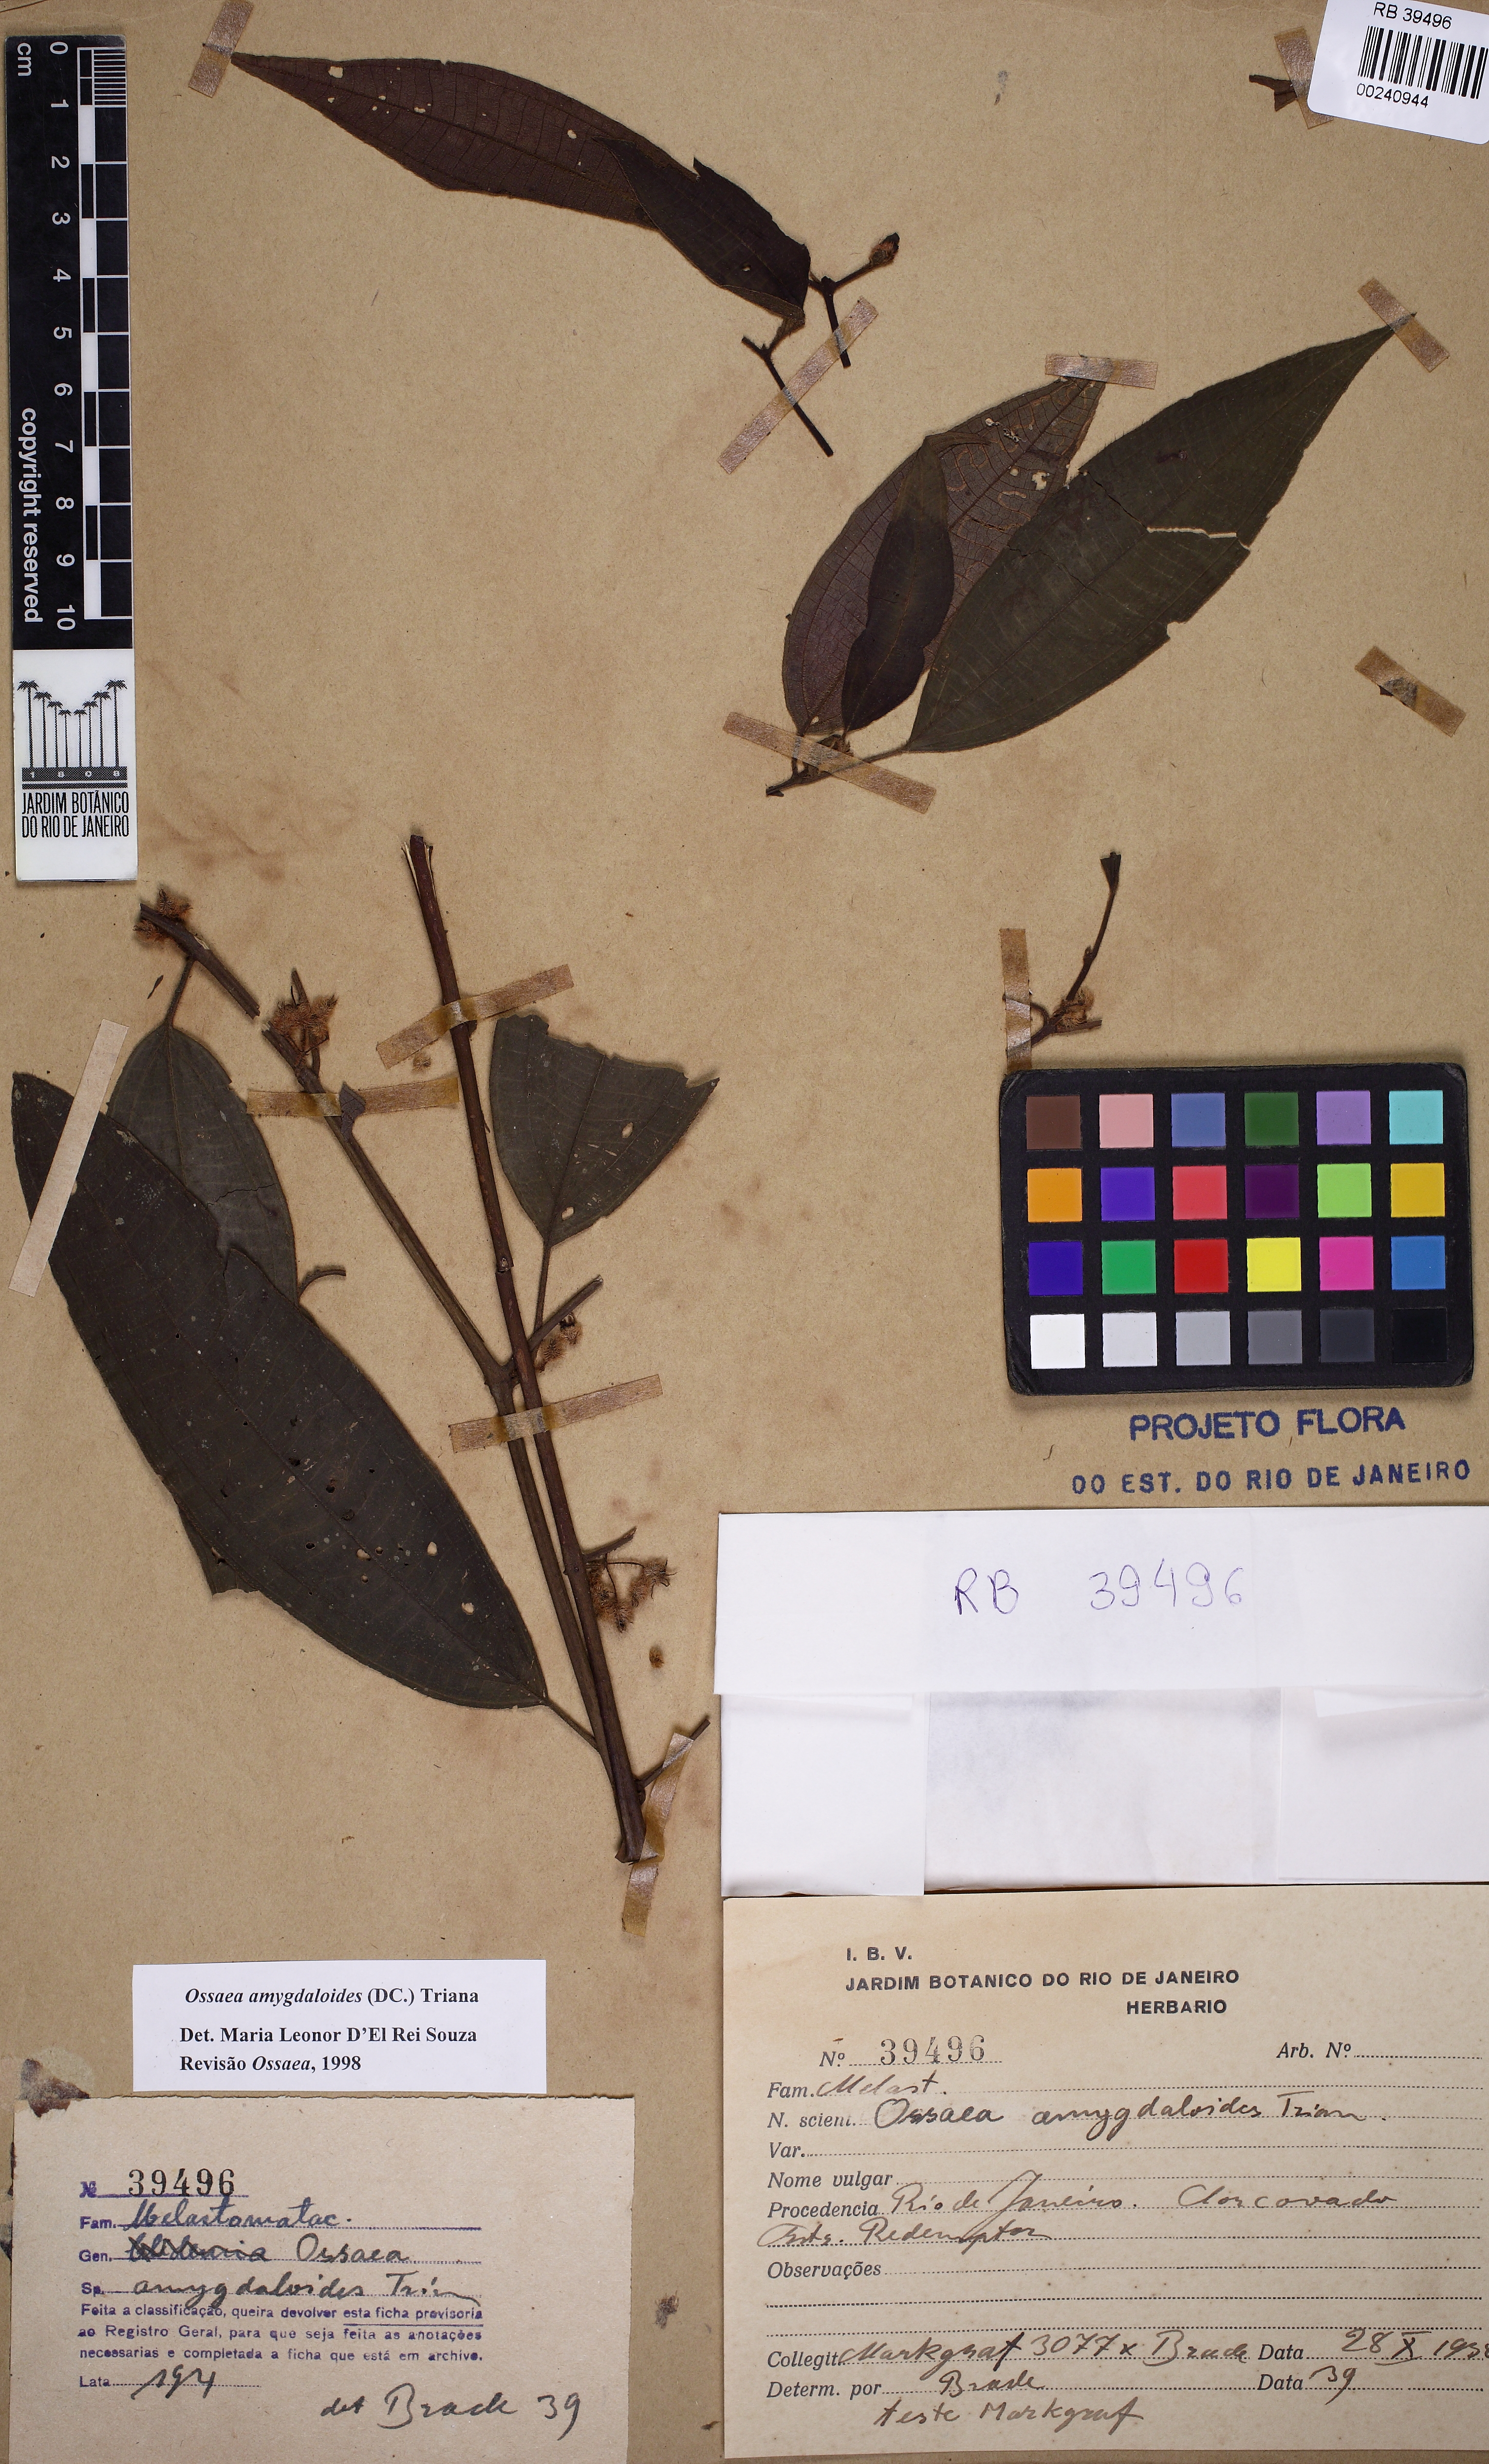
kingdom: Plantae
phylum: Tracheophyta
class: Magnoliopsida
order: Myrtales
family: Melastomataceae
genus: Miconia
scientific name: Miconia amygdaloides
